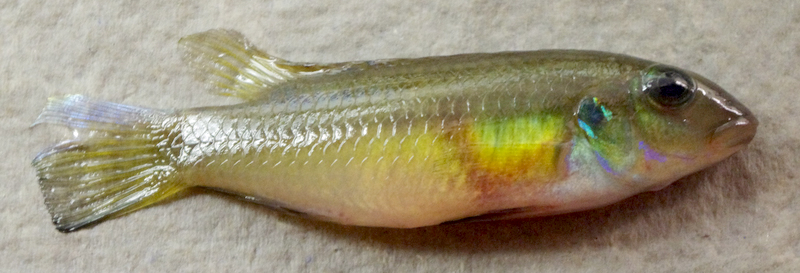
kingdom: Animalia
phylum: Chordata
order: Perciformes
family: Cichlidae
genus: Pelvicachromis
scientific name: Pelvicachromis roloffi
